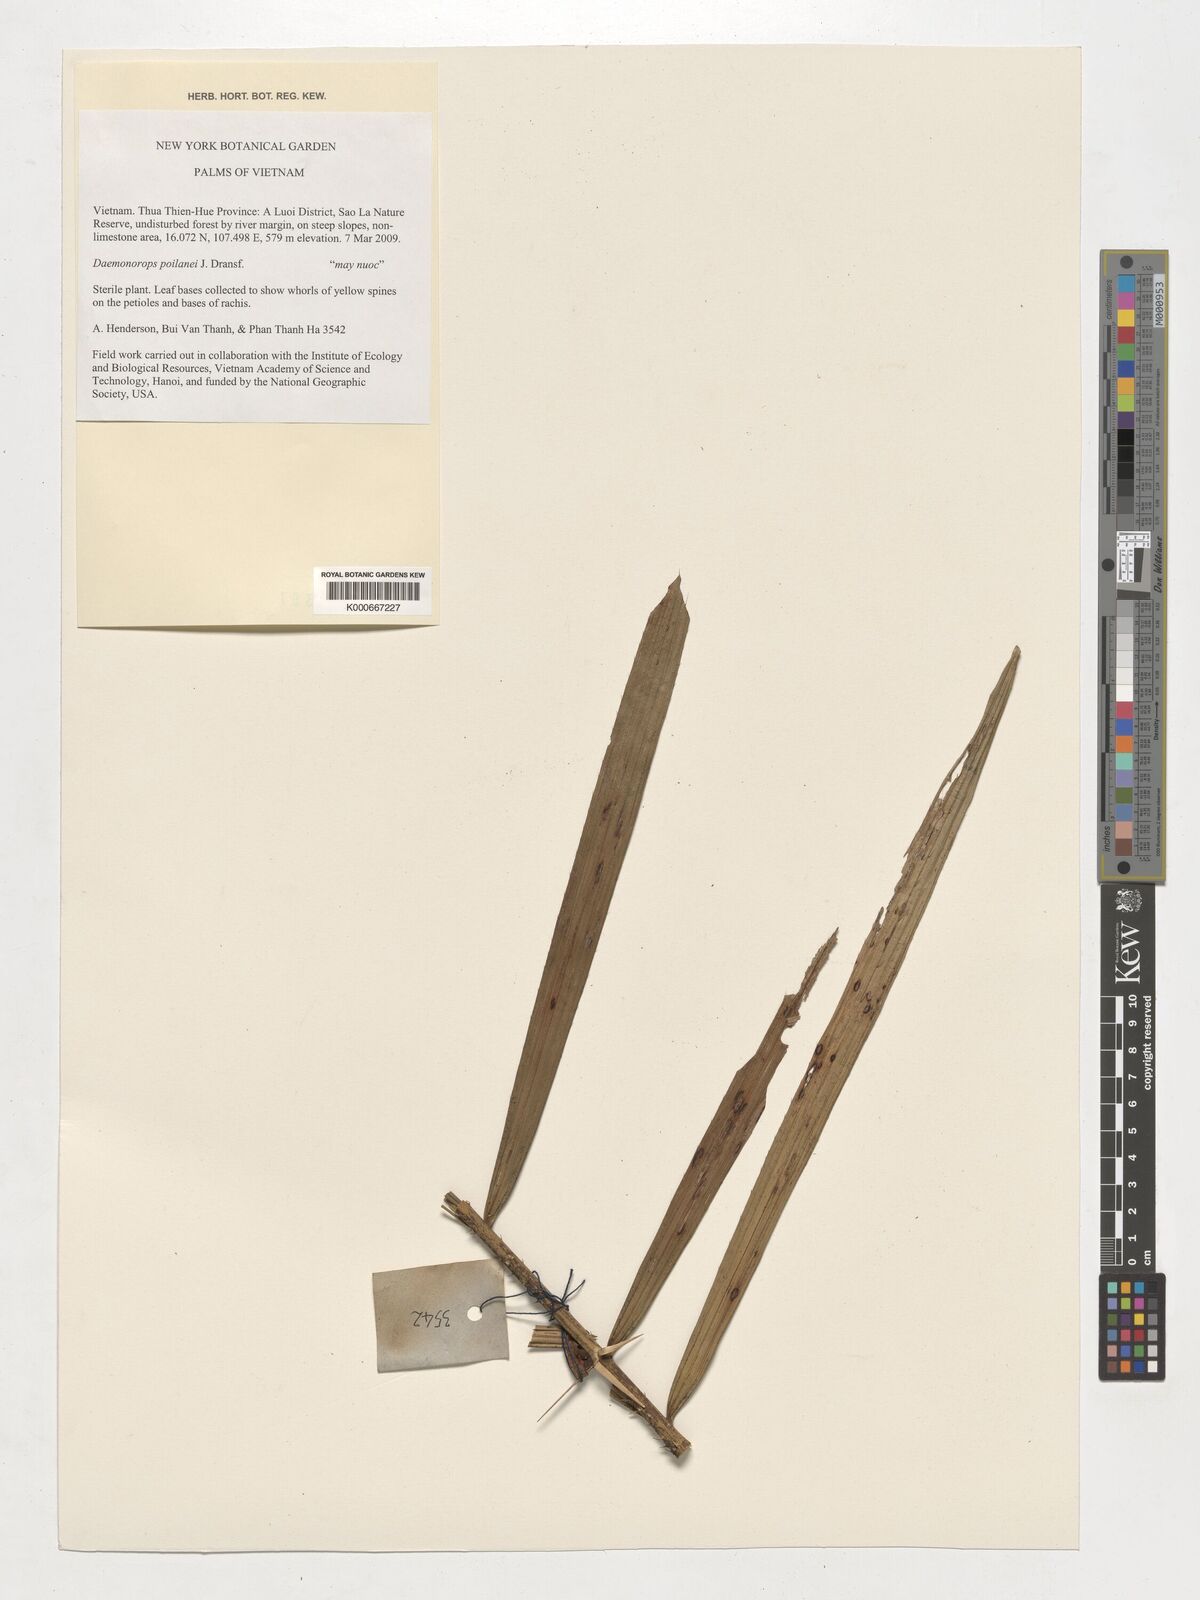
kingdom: Plantae
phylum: Tracheophyta
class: Liliopsida
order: Arecales
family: Arecaceae
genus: Calamus
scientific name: Calamus eugenei
